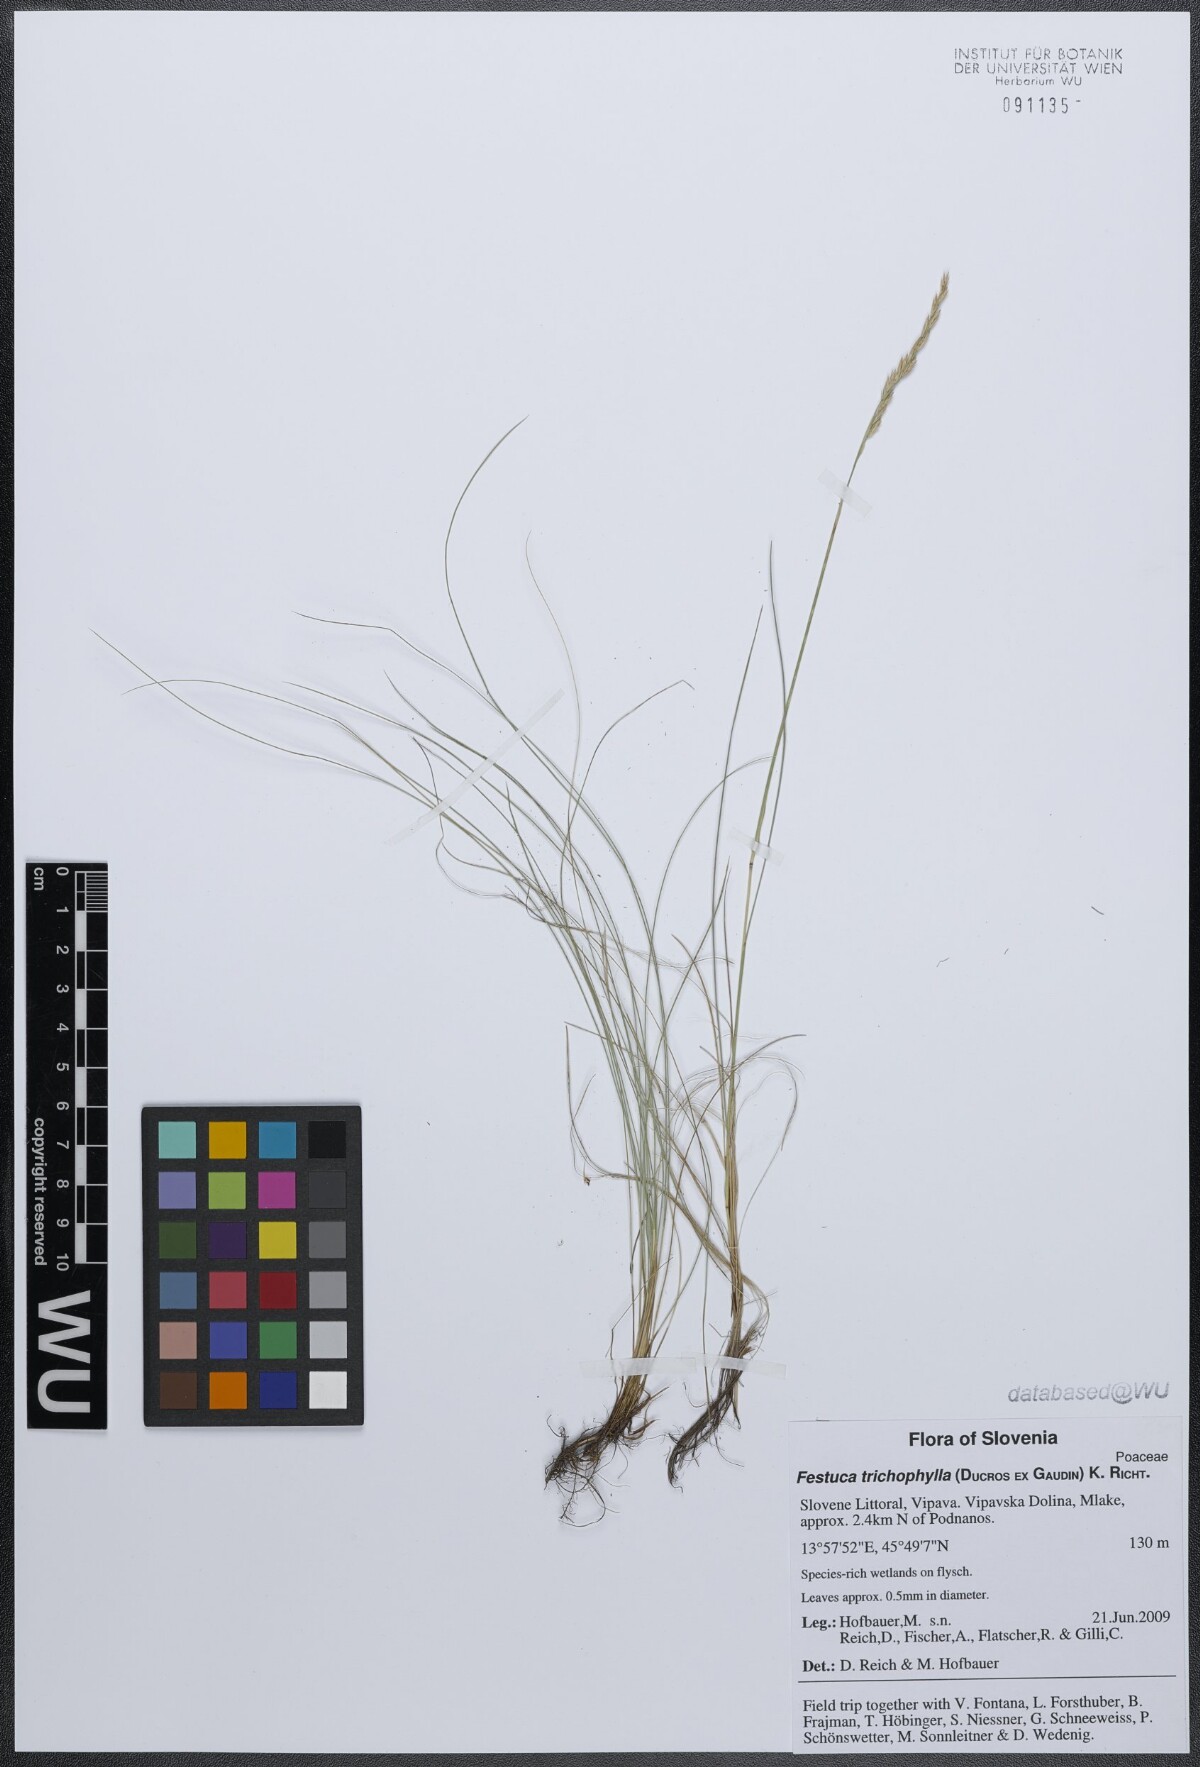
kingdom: Plantae
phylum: Tracheophyta
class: Liliopsida
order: Poales
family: Poaceae
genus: Festuca
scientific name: Festuca trichophylla
